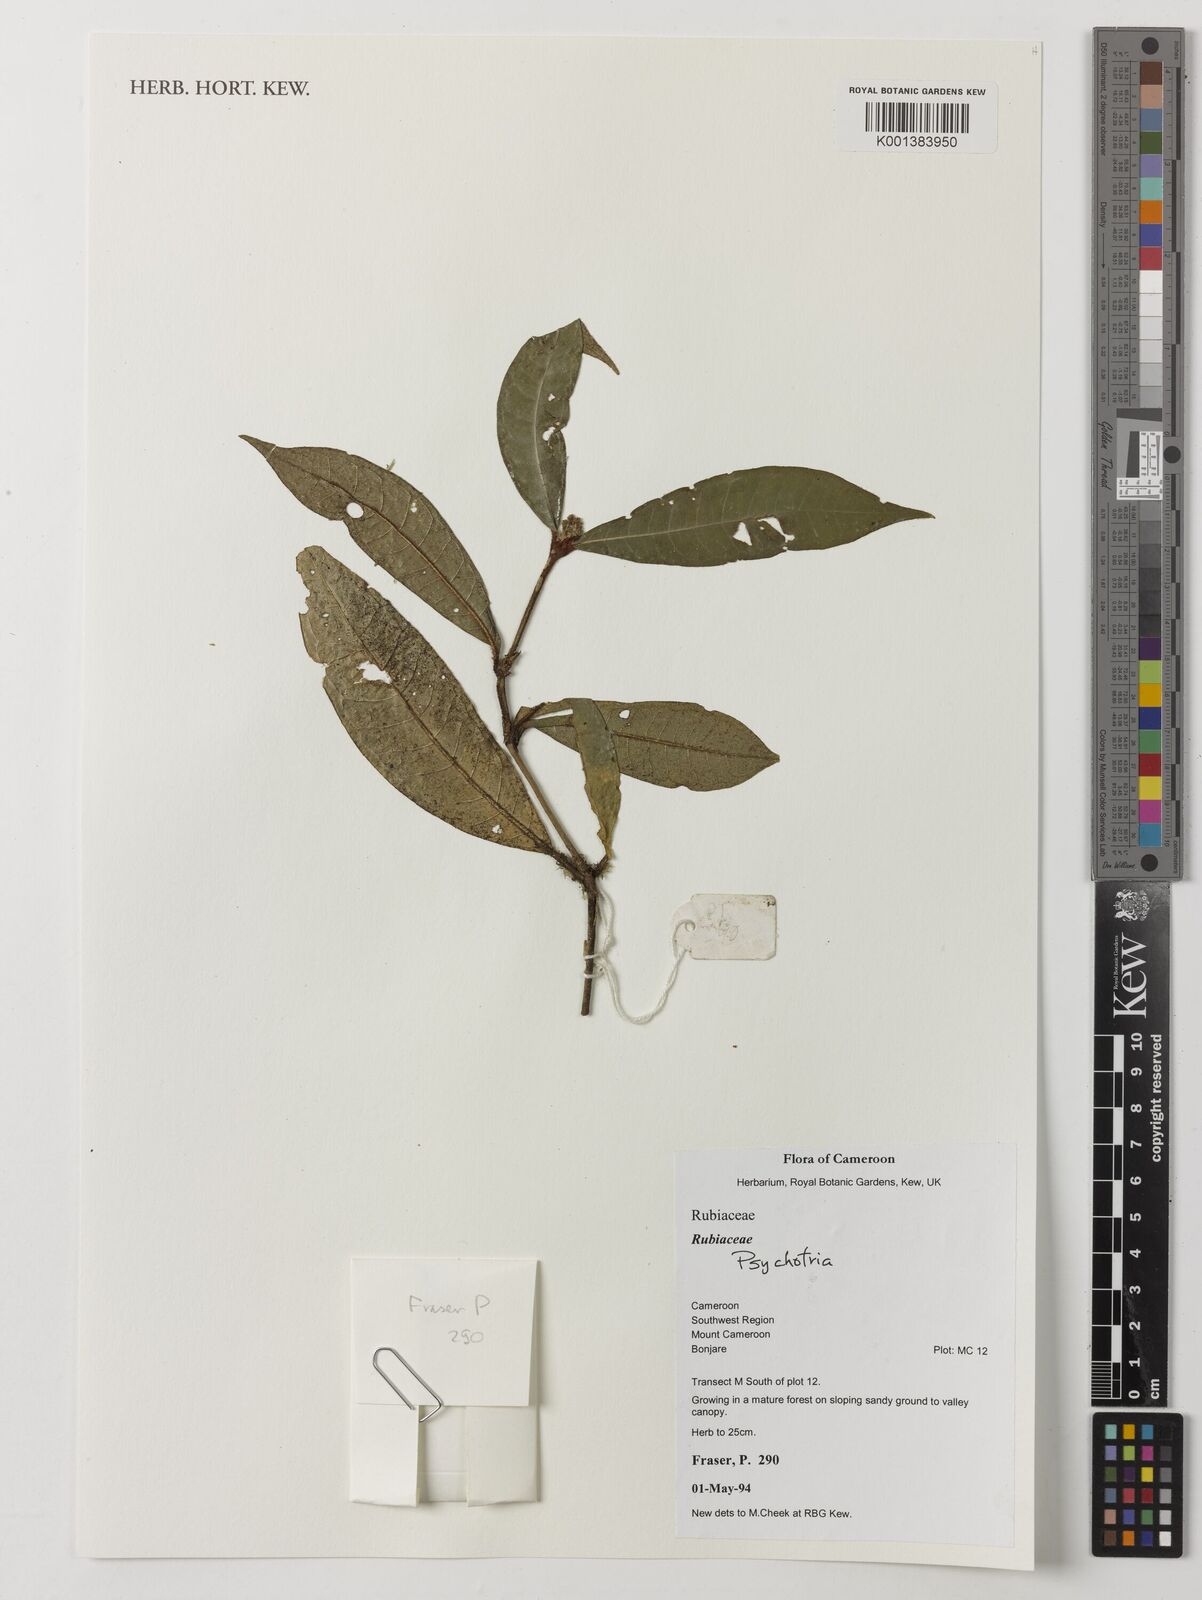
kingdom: Plantae
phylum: Tracheophyta
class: Magnoliopsida
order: Gentianales
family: Rubiaceae
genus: Psychotria
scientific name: Psychotria
